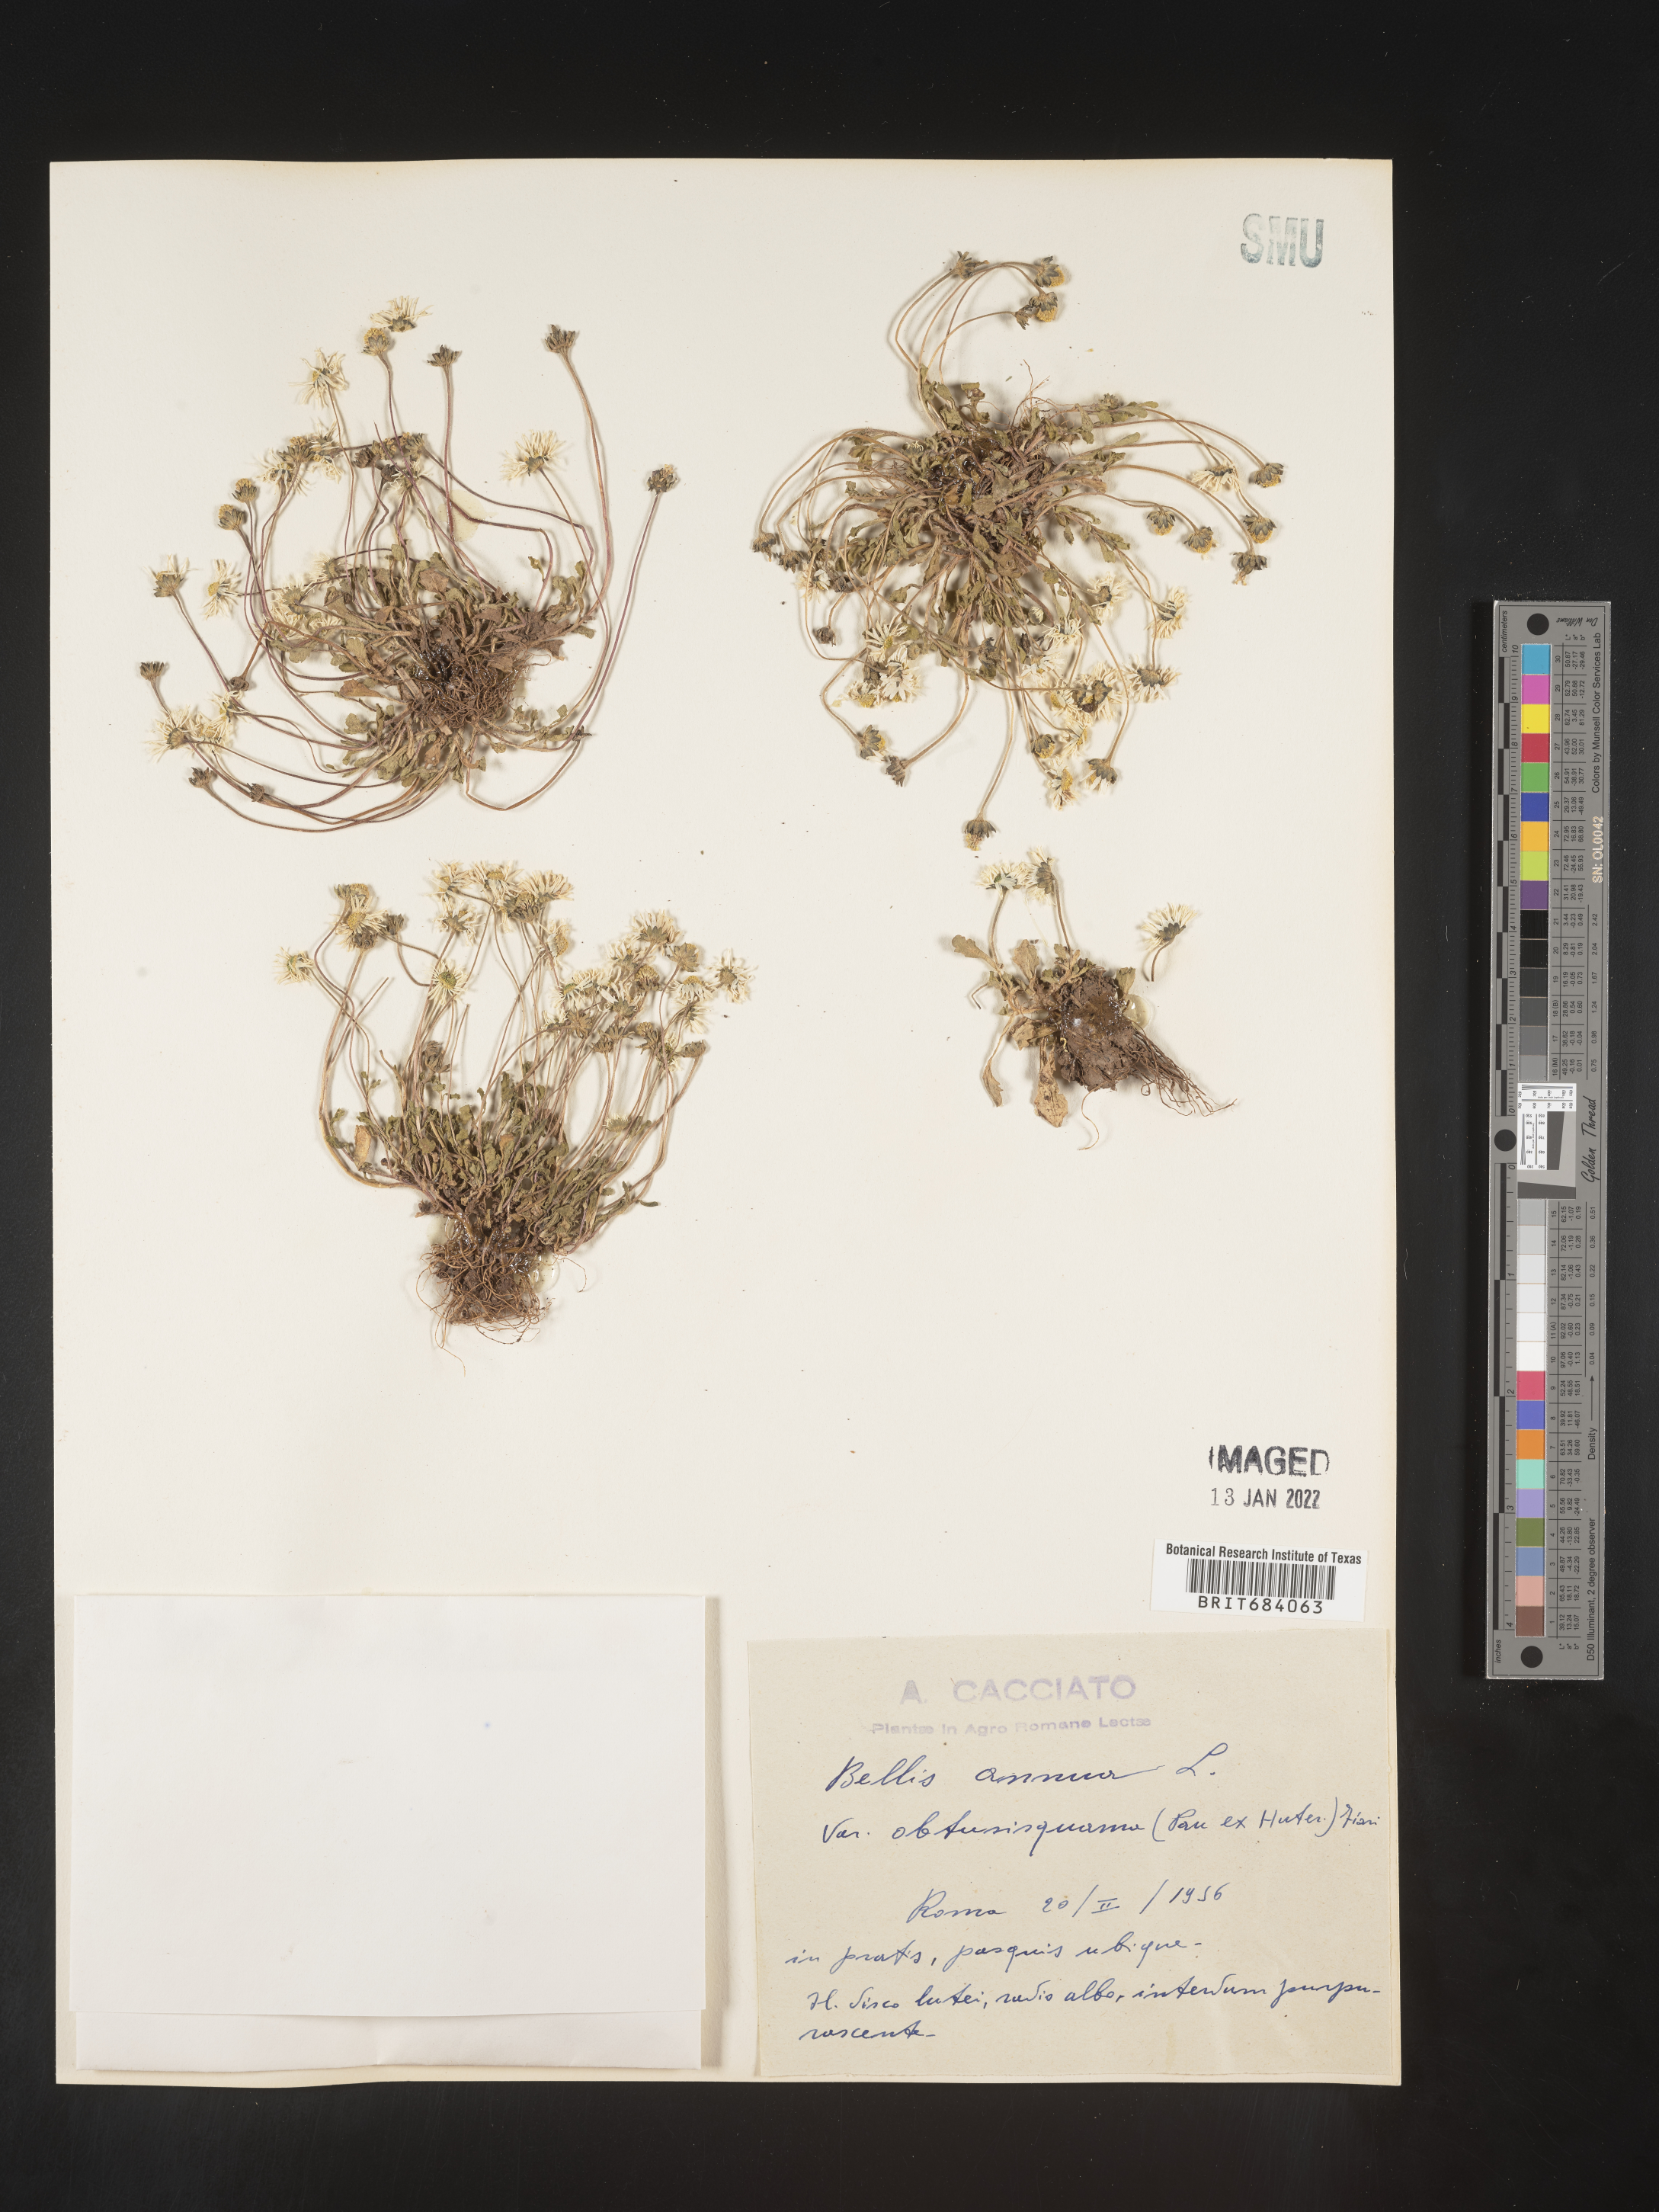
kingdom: Plantae
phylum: Tracheophyta
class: Magnoliopsida
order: Asterales
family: Asteraceae
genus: Bellis
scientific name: Bellis
